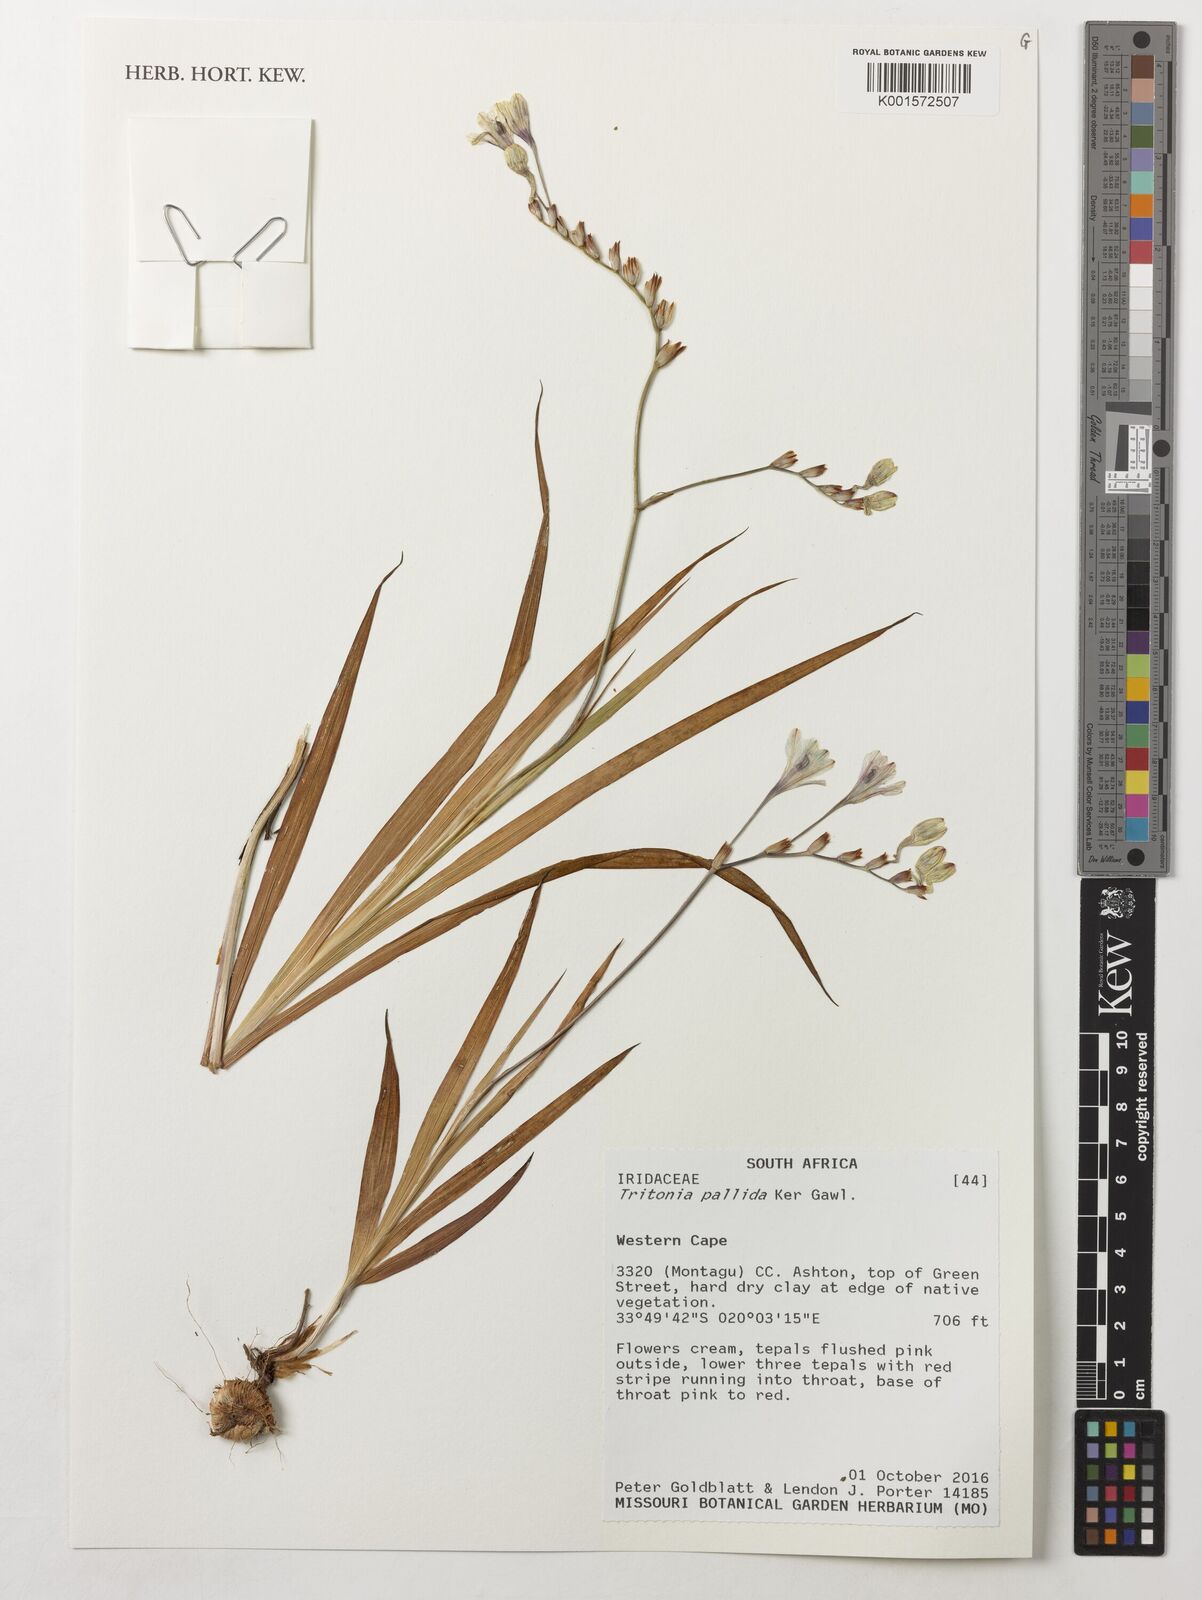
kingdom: Plantae
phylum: Tracheophyta
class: Liliopsida
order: Asparagales
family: Iridaceae
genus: Tritonia
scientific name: Tritonia pallida
